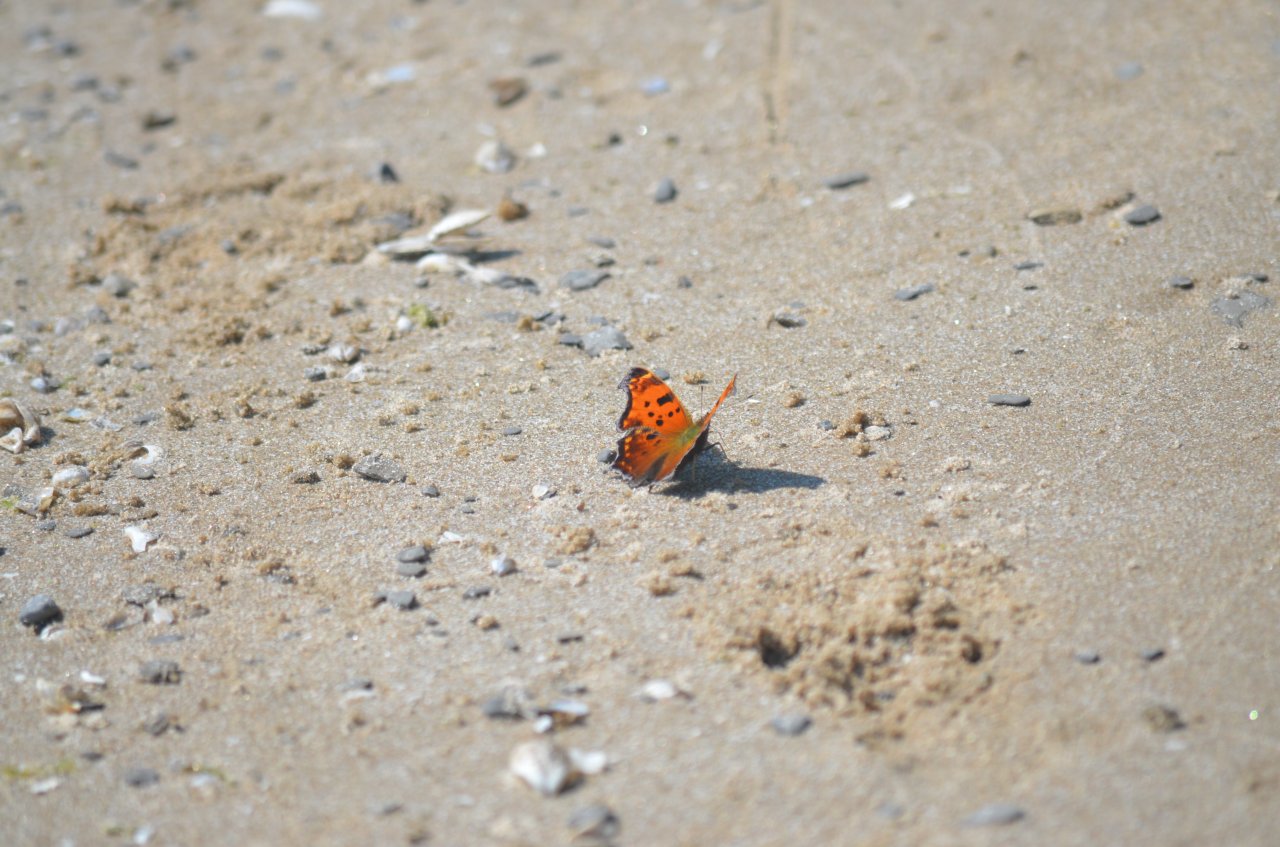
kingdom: Animalia
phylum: Arthropoda
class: Insecta
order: Lepidoptera
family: Nymphalidae
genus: Polygonia
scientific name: Polygonia comma
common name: Eastern Comma
